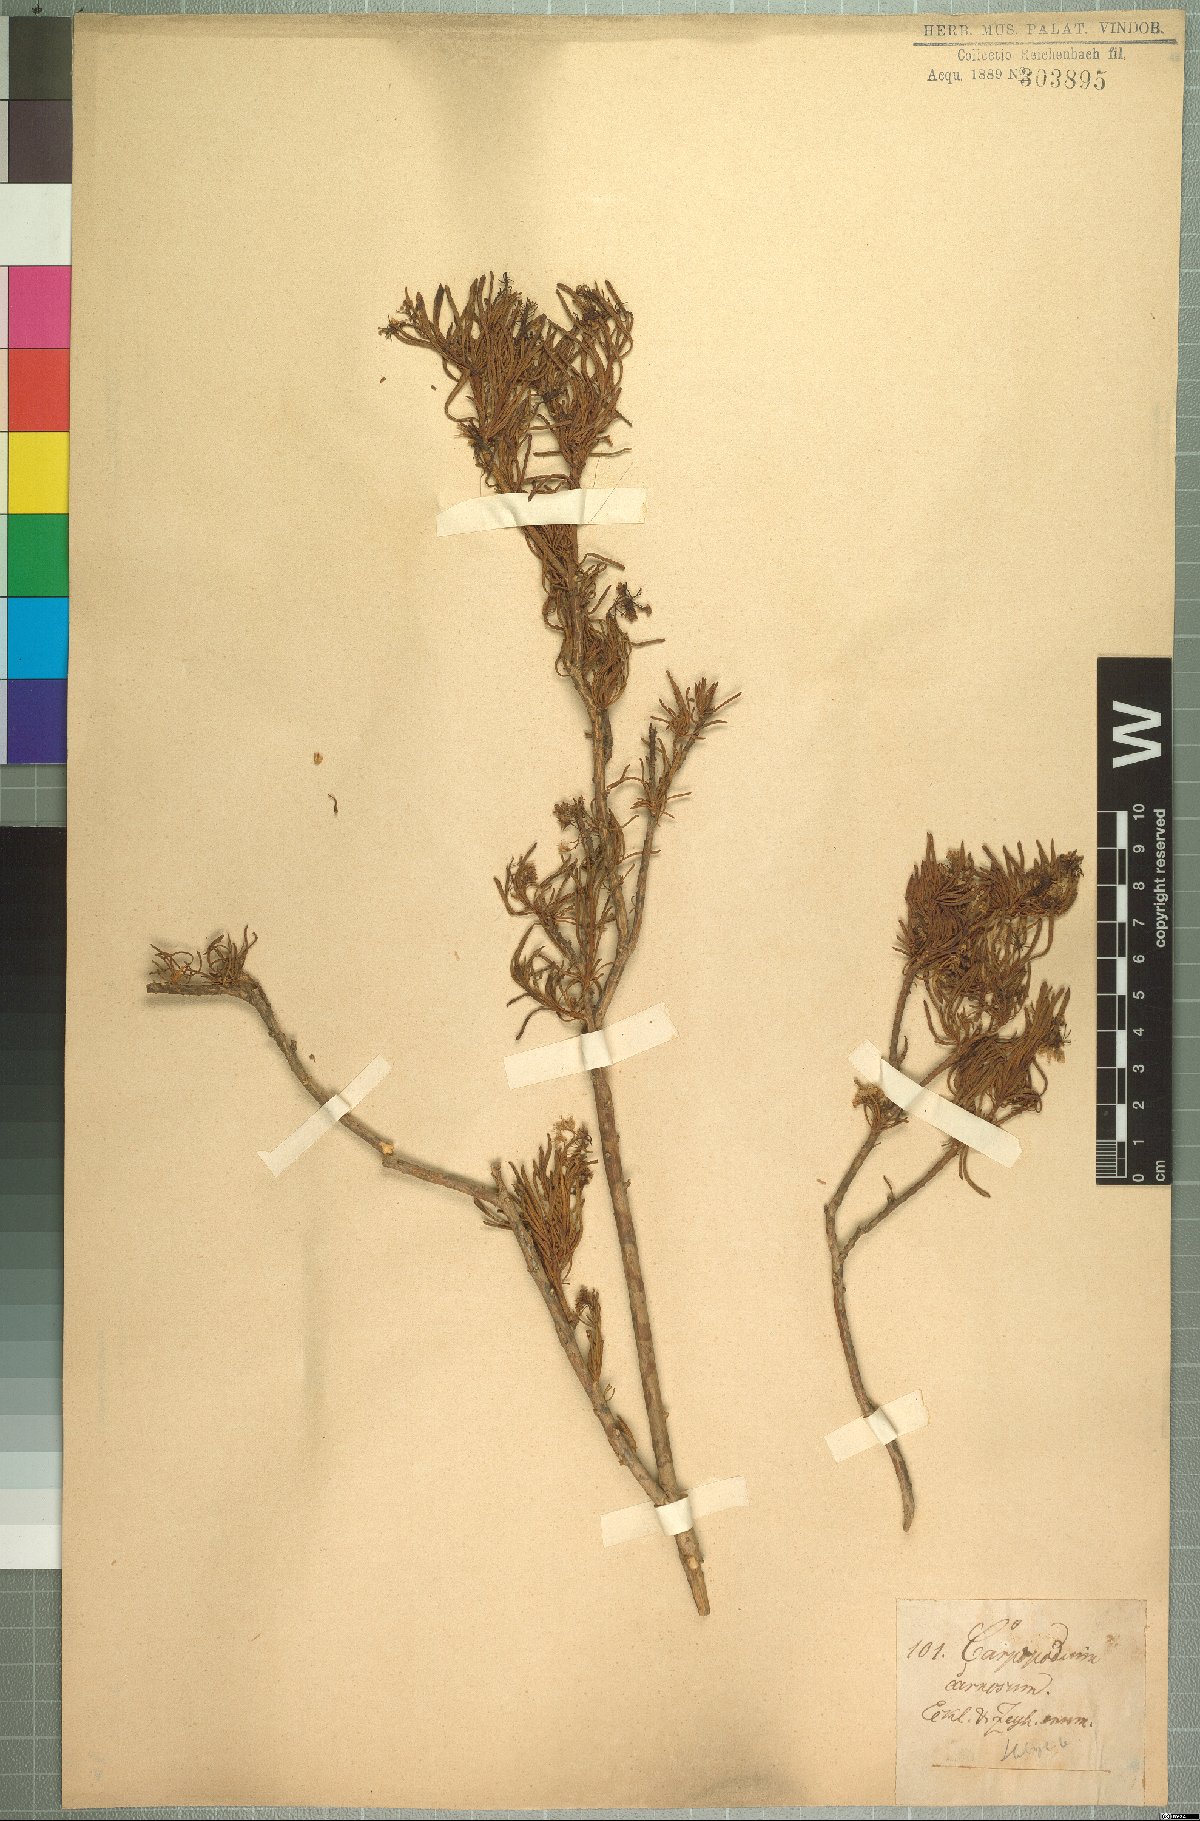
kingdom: Plantae
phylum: Tracheophyta
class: Magnoliopsida
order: Brassicales
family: Brassicaceae
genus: Heliophila
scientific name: Heliophila brachycarpa
